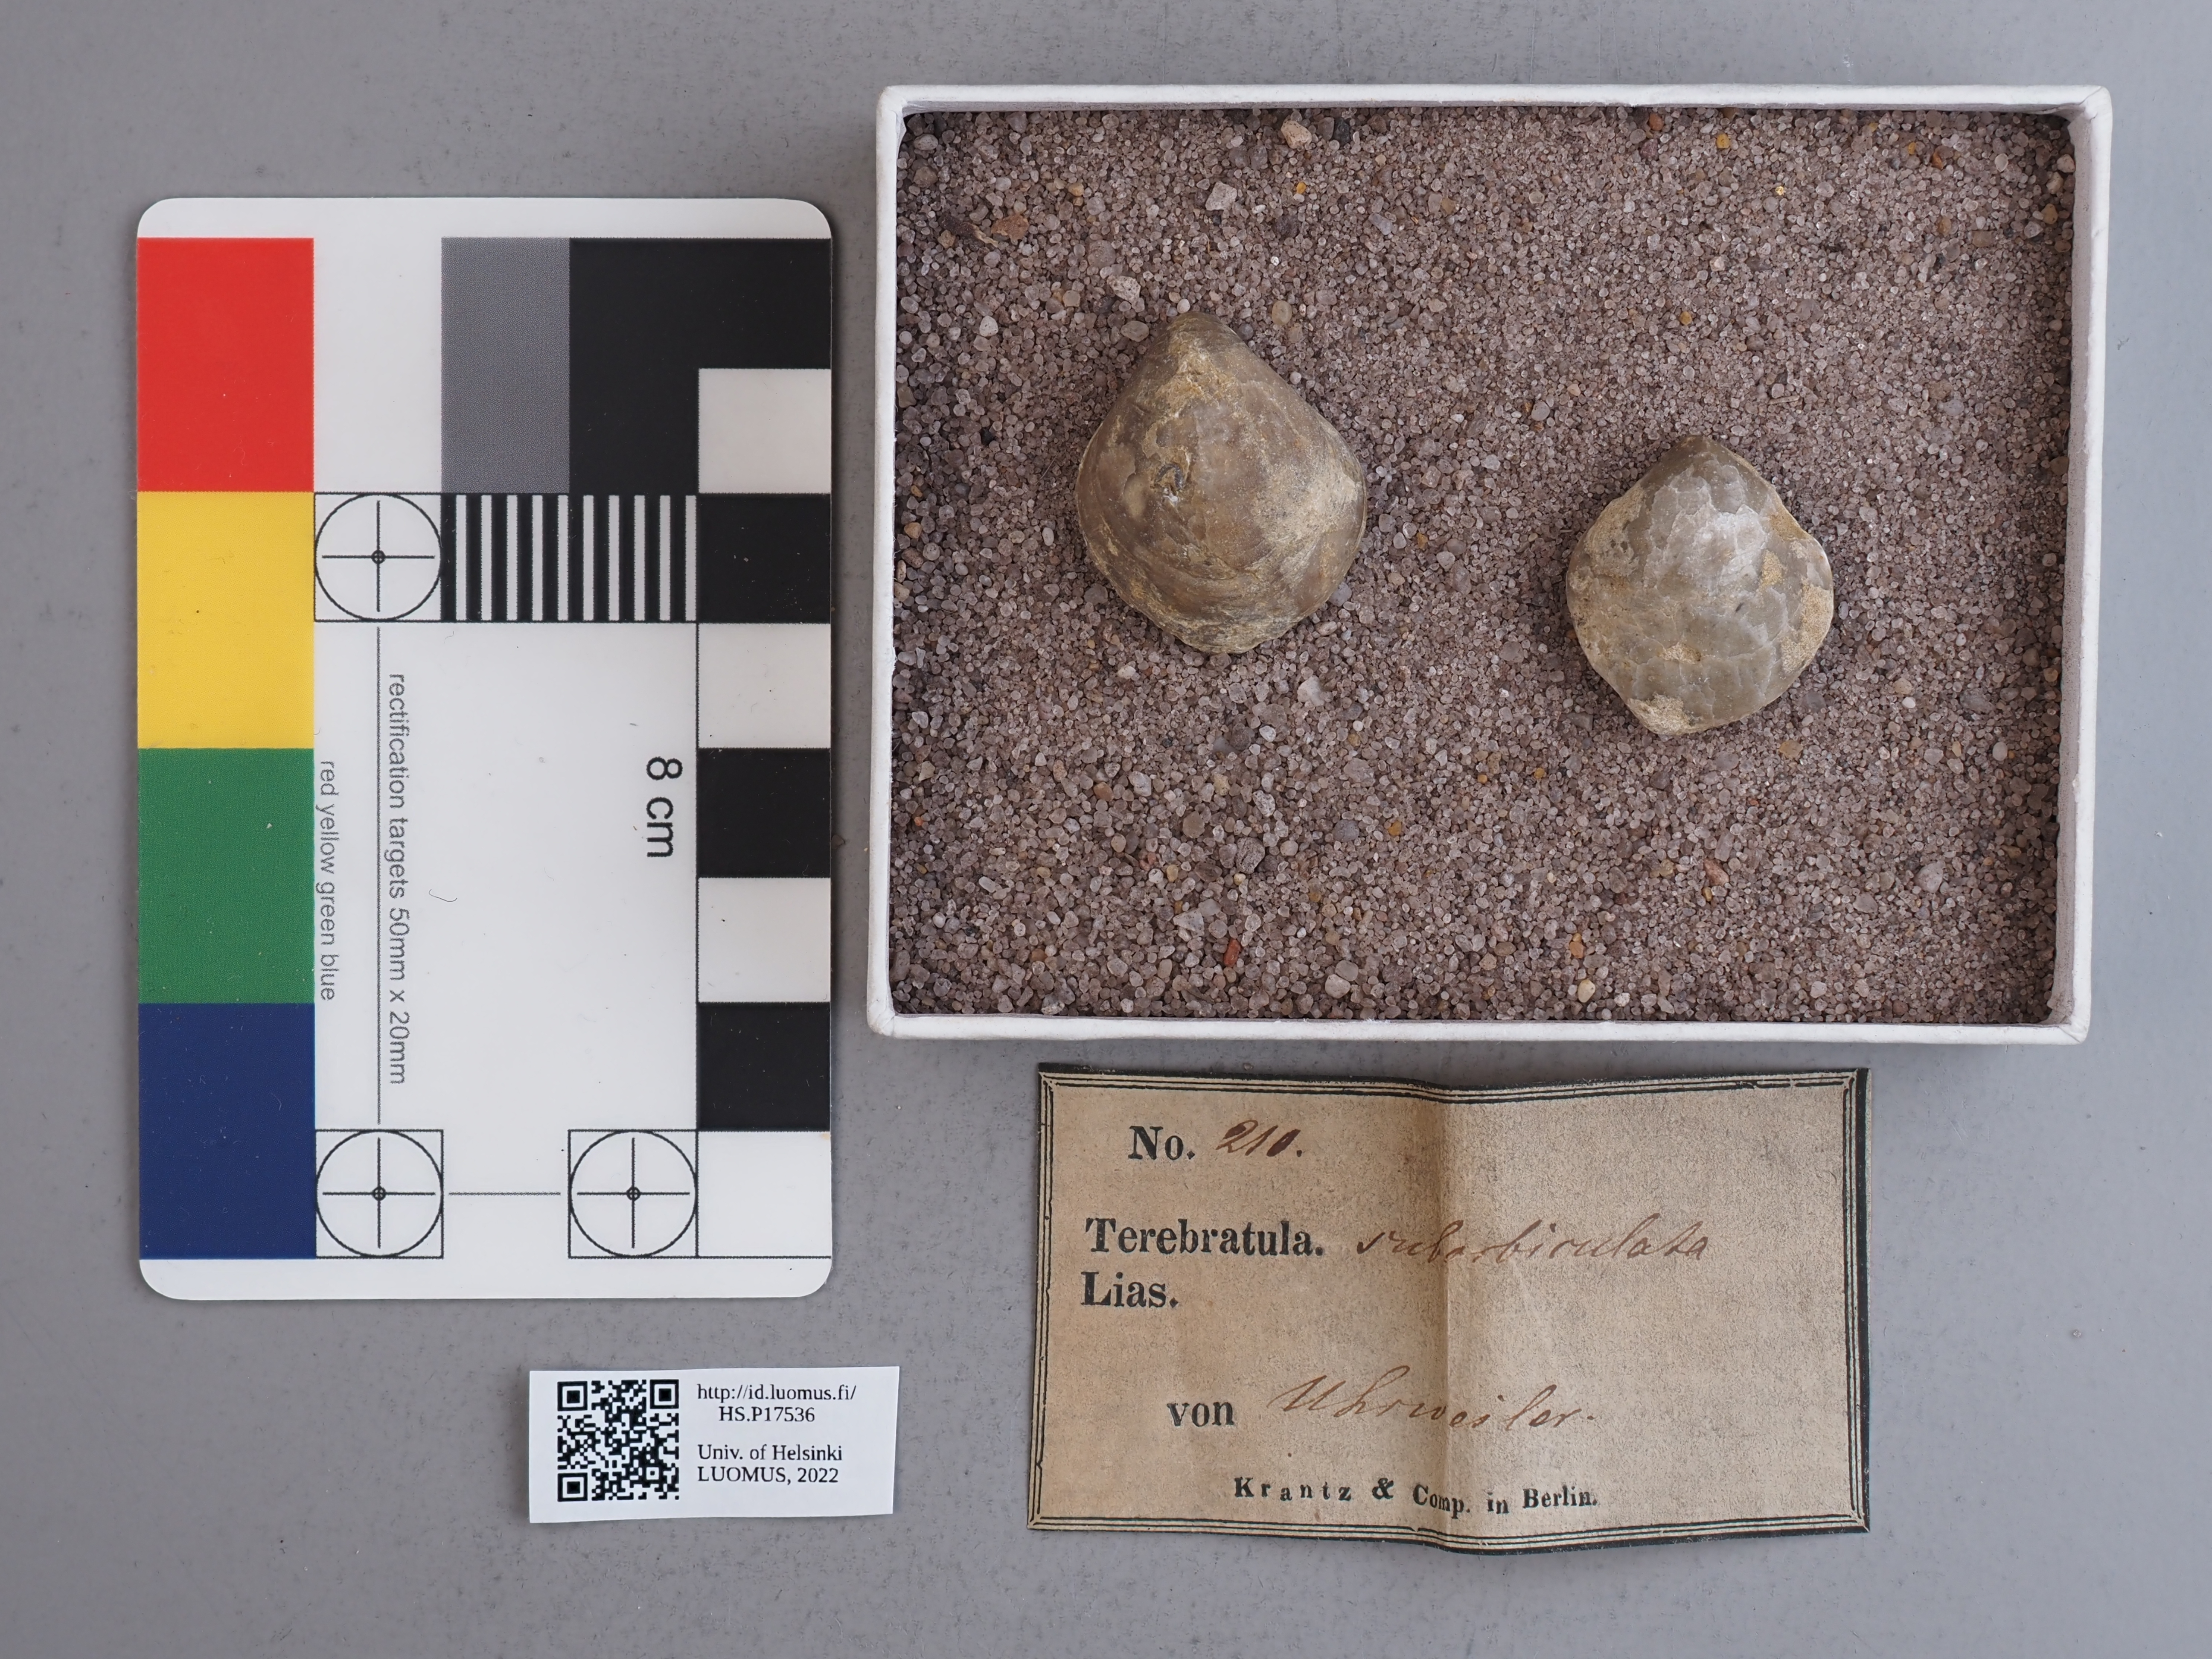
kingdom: Animalia
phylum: Brachiopoda
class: Rhynchonellata
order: Terebratulida
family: Terebratulidae
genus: Terebratula
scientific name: Terebratula
